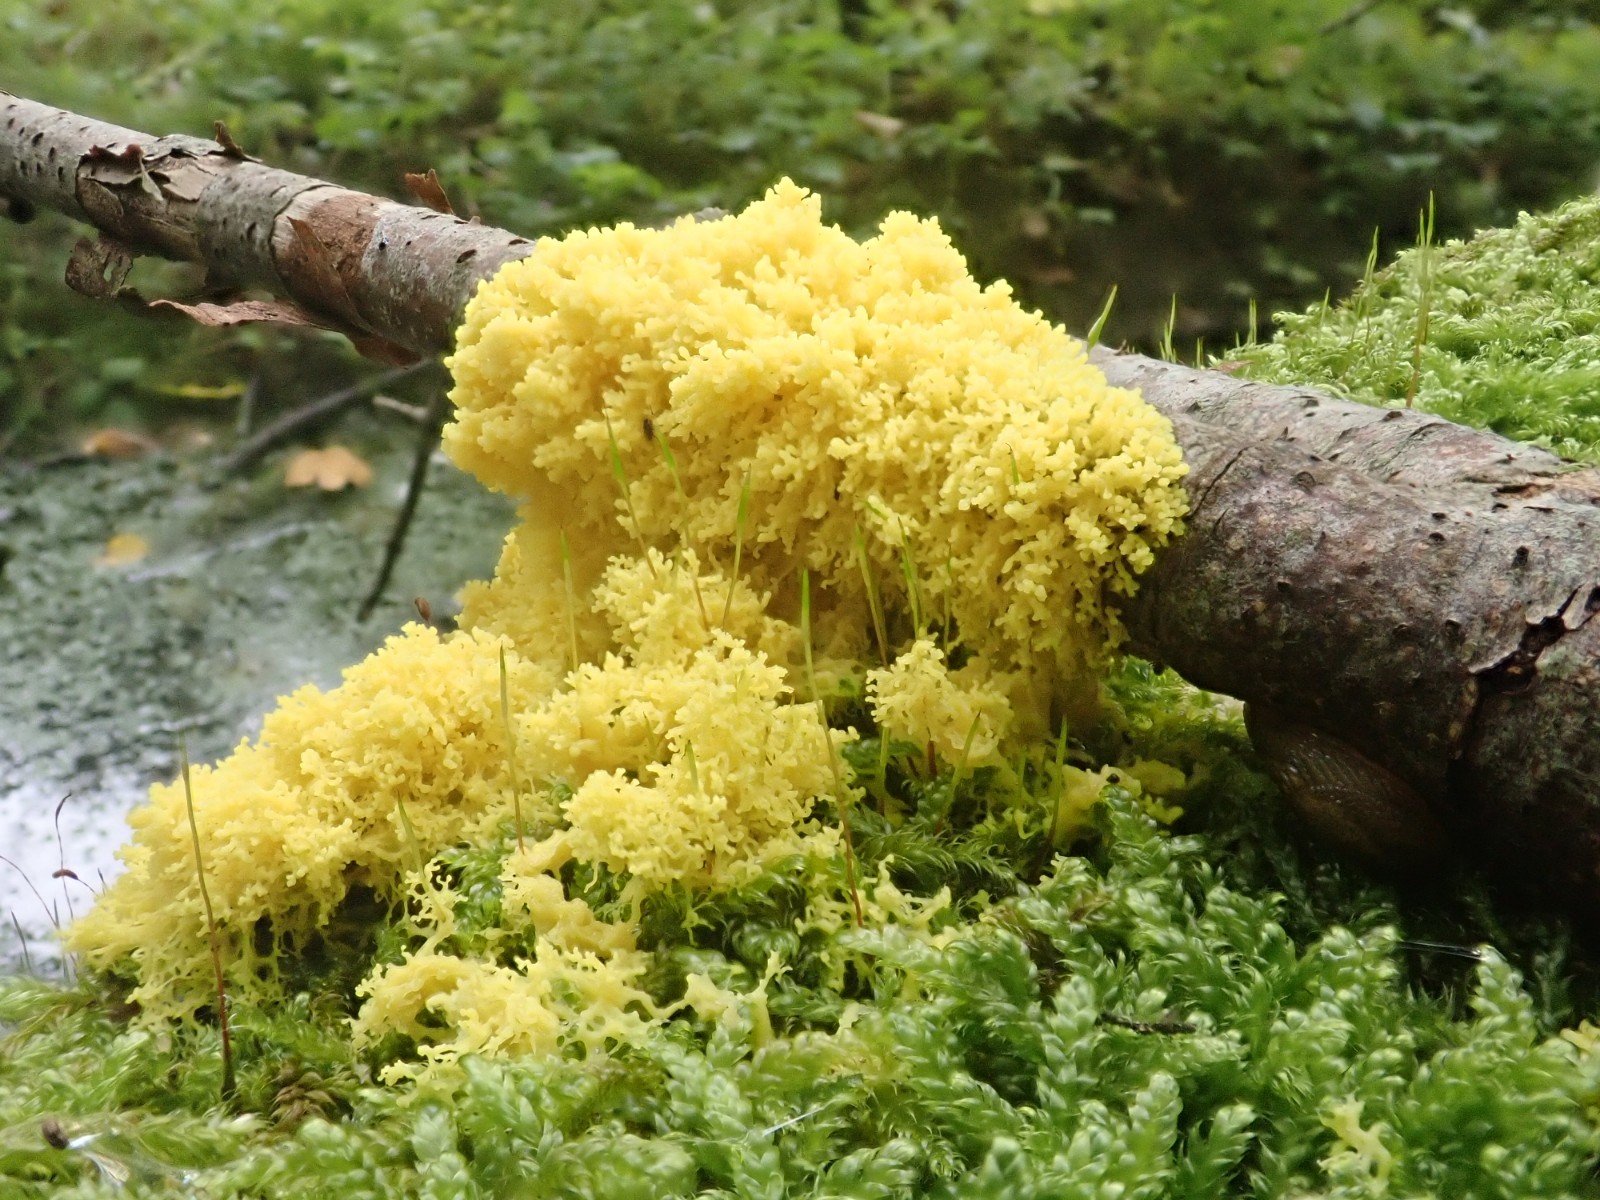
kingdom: Protozoa
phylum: Mycetozoa
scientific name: Mycetozoa
